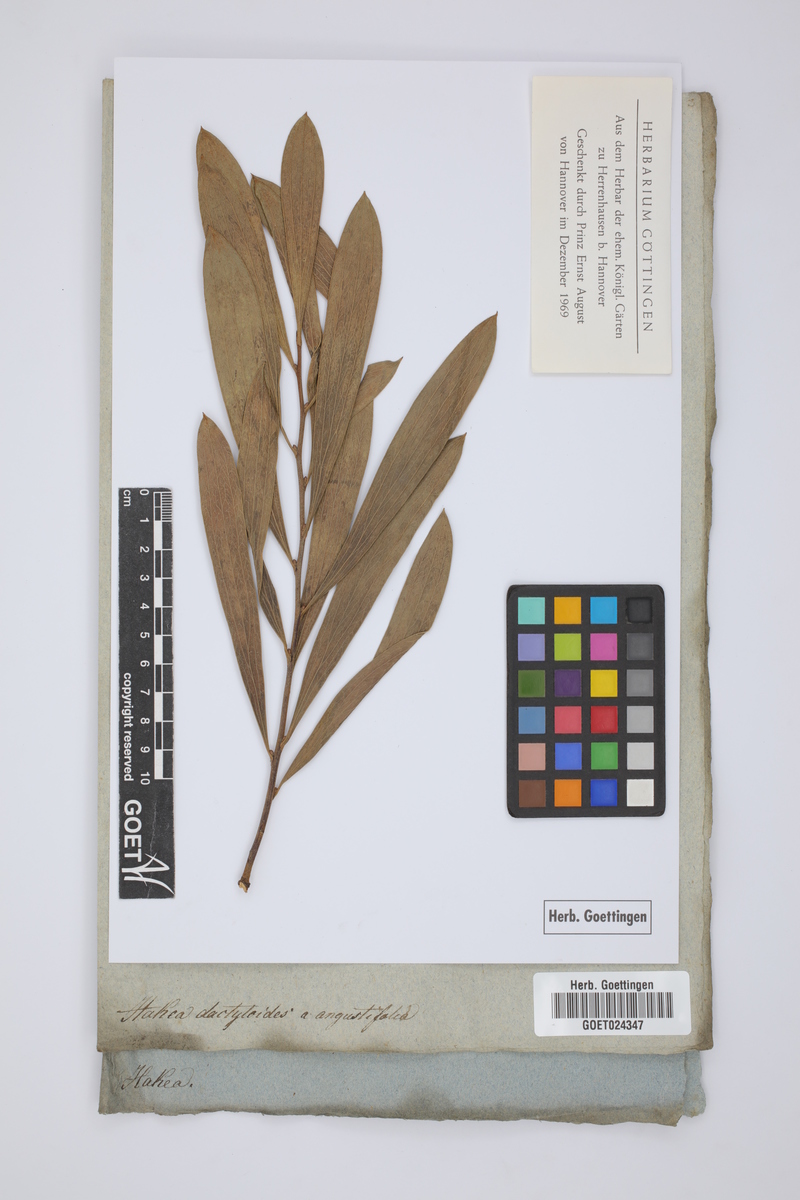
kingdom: Plantae
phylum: Tracheophyta
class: Magnoliopsida
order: Proteales
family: Proteaceae
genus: Hakea
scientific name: Hakea laevipes
